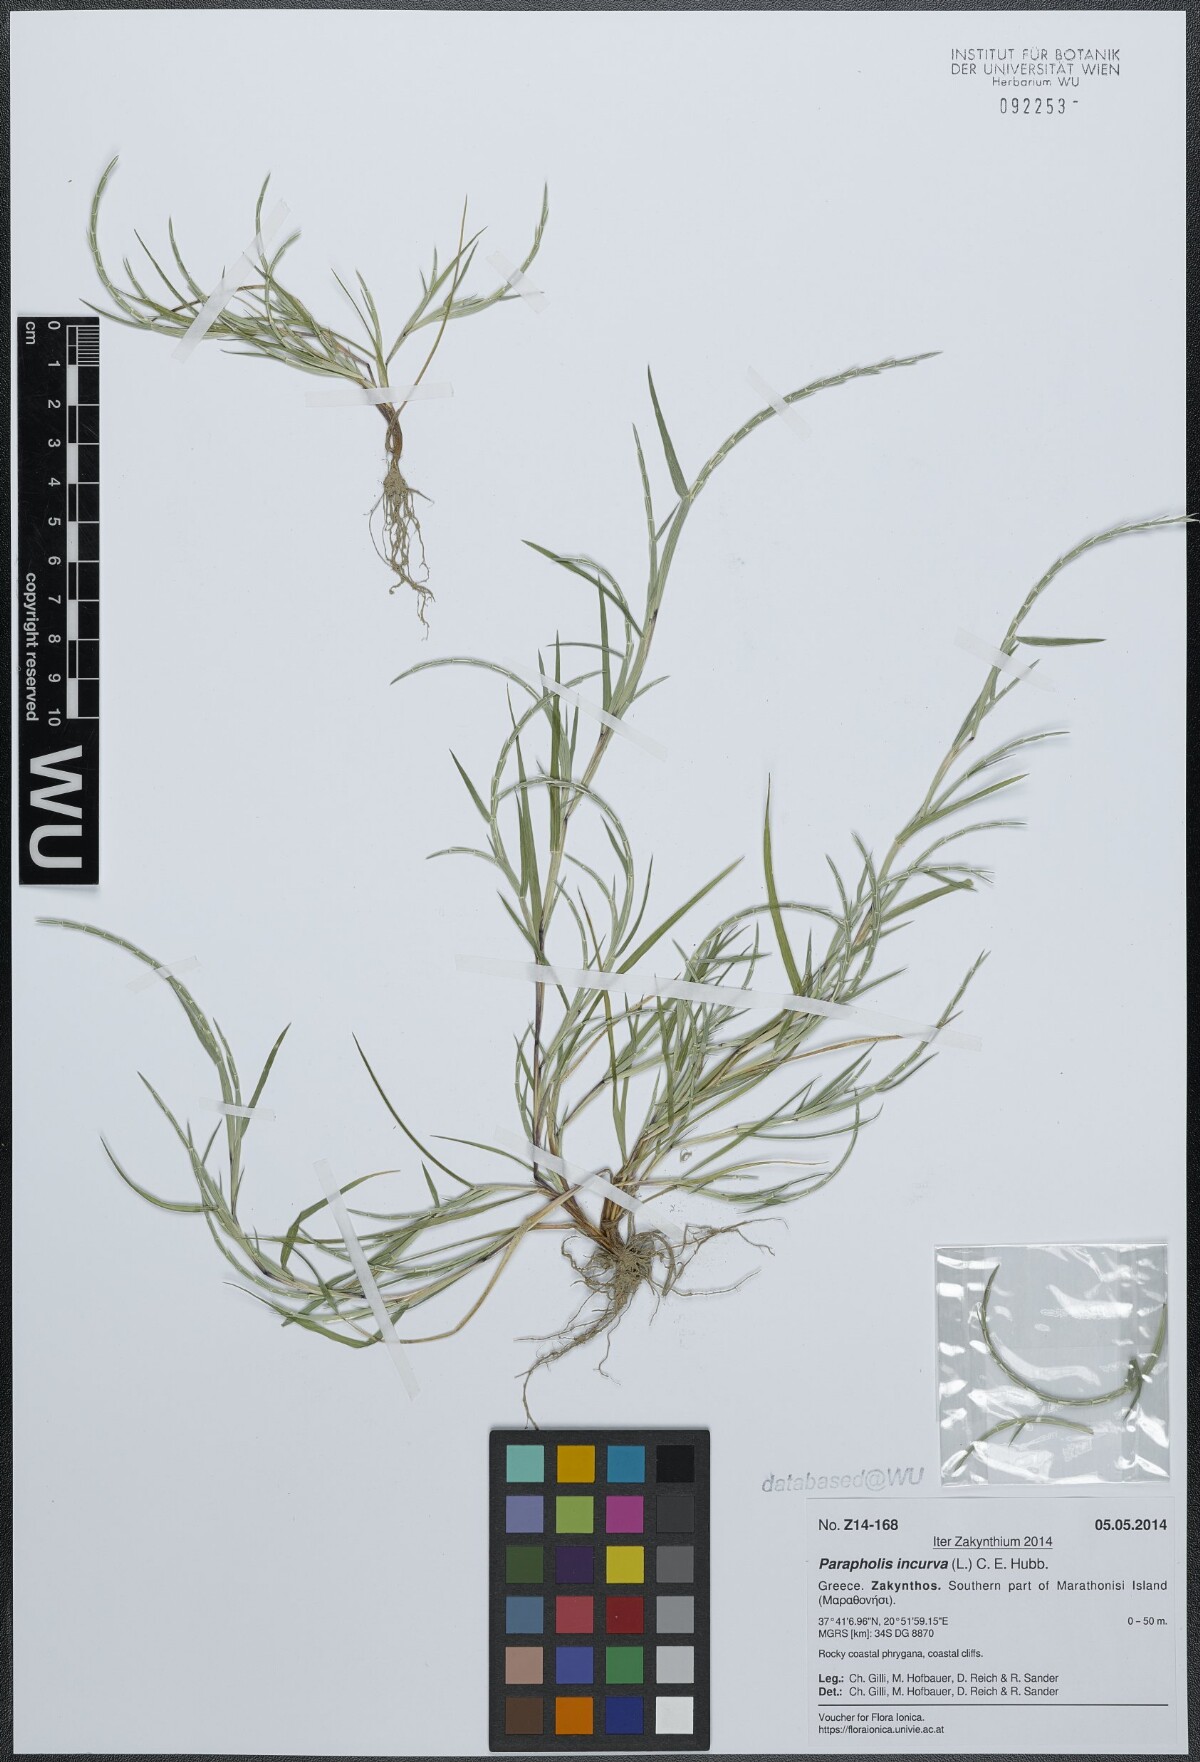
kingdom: Plantae
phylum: Tracheophyta
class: Liliopsida
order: Poales
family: Poaceae
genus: Parapholis
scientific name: Parapholis incurva
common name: Curved sicklegrass
